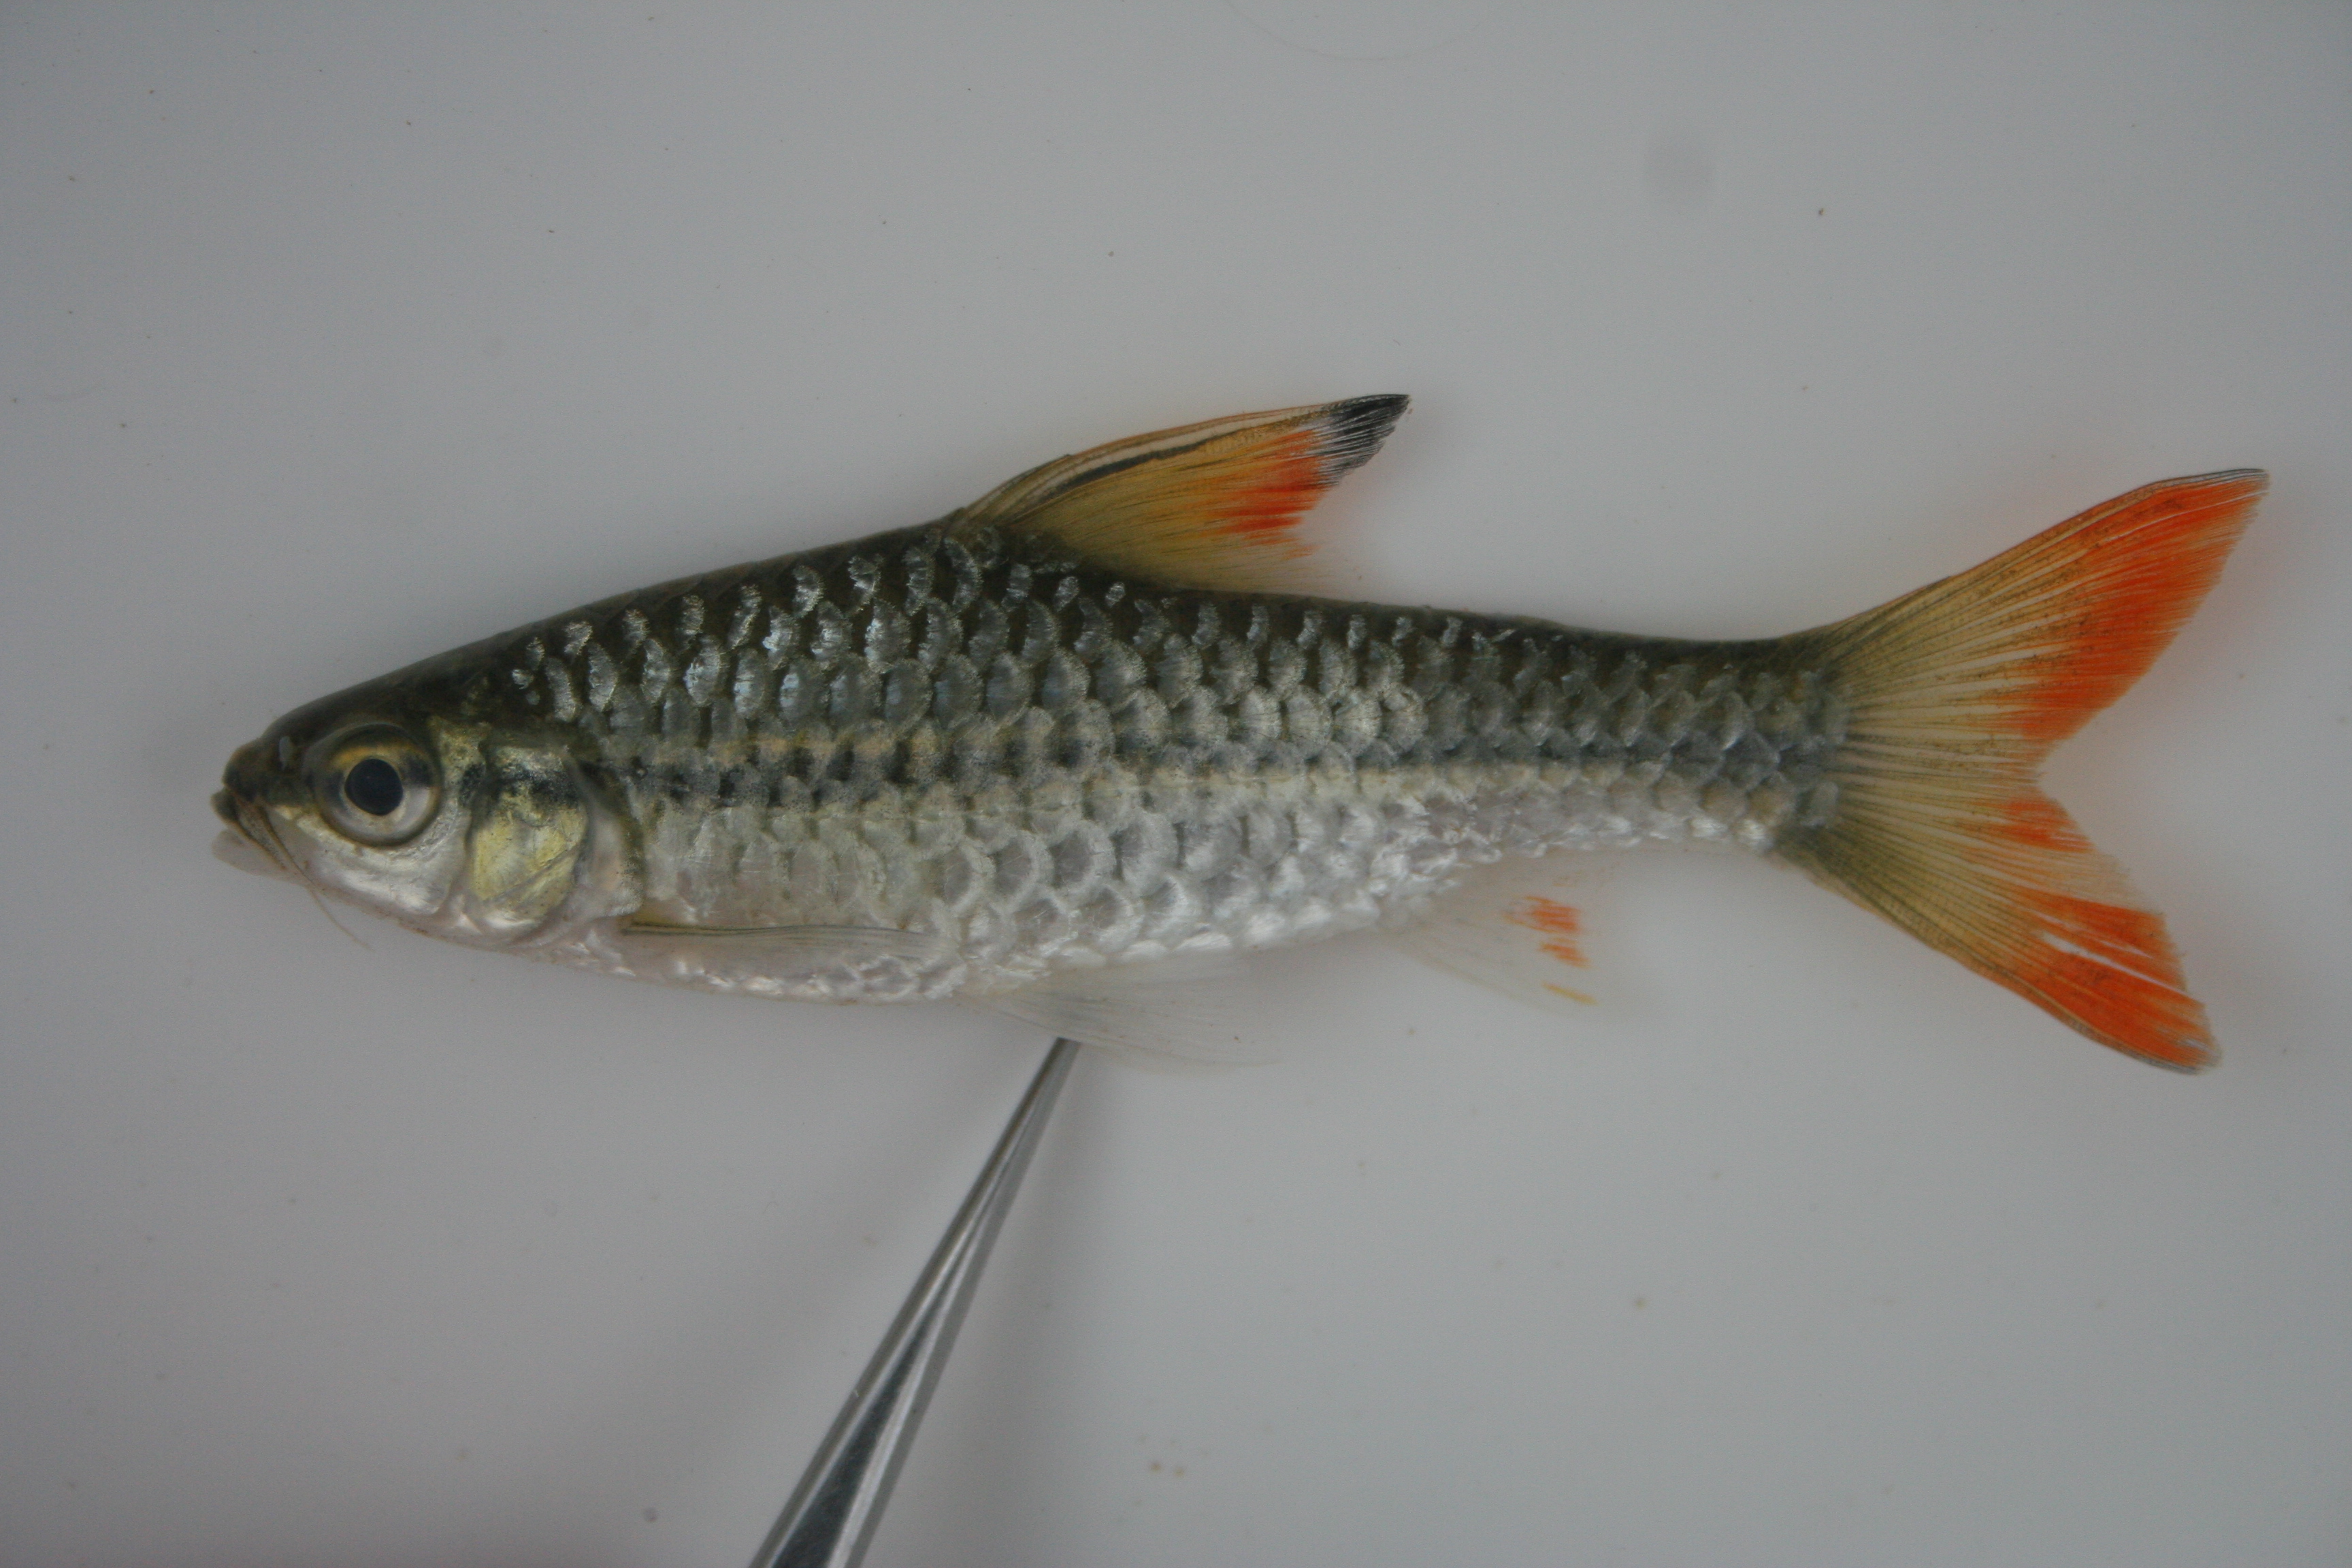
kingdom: Animalia
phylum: Chordata
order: Cypriniformes
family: Cyprinidae
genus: Enteromius
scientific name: Enteromius holotaenia
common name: Spotscale barb
